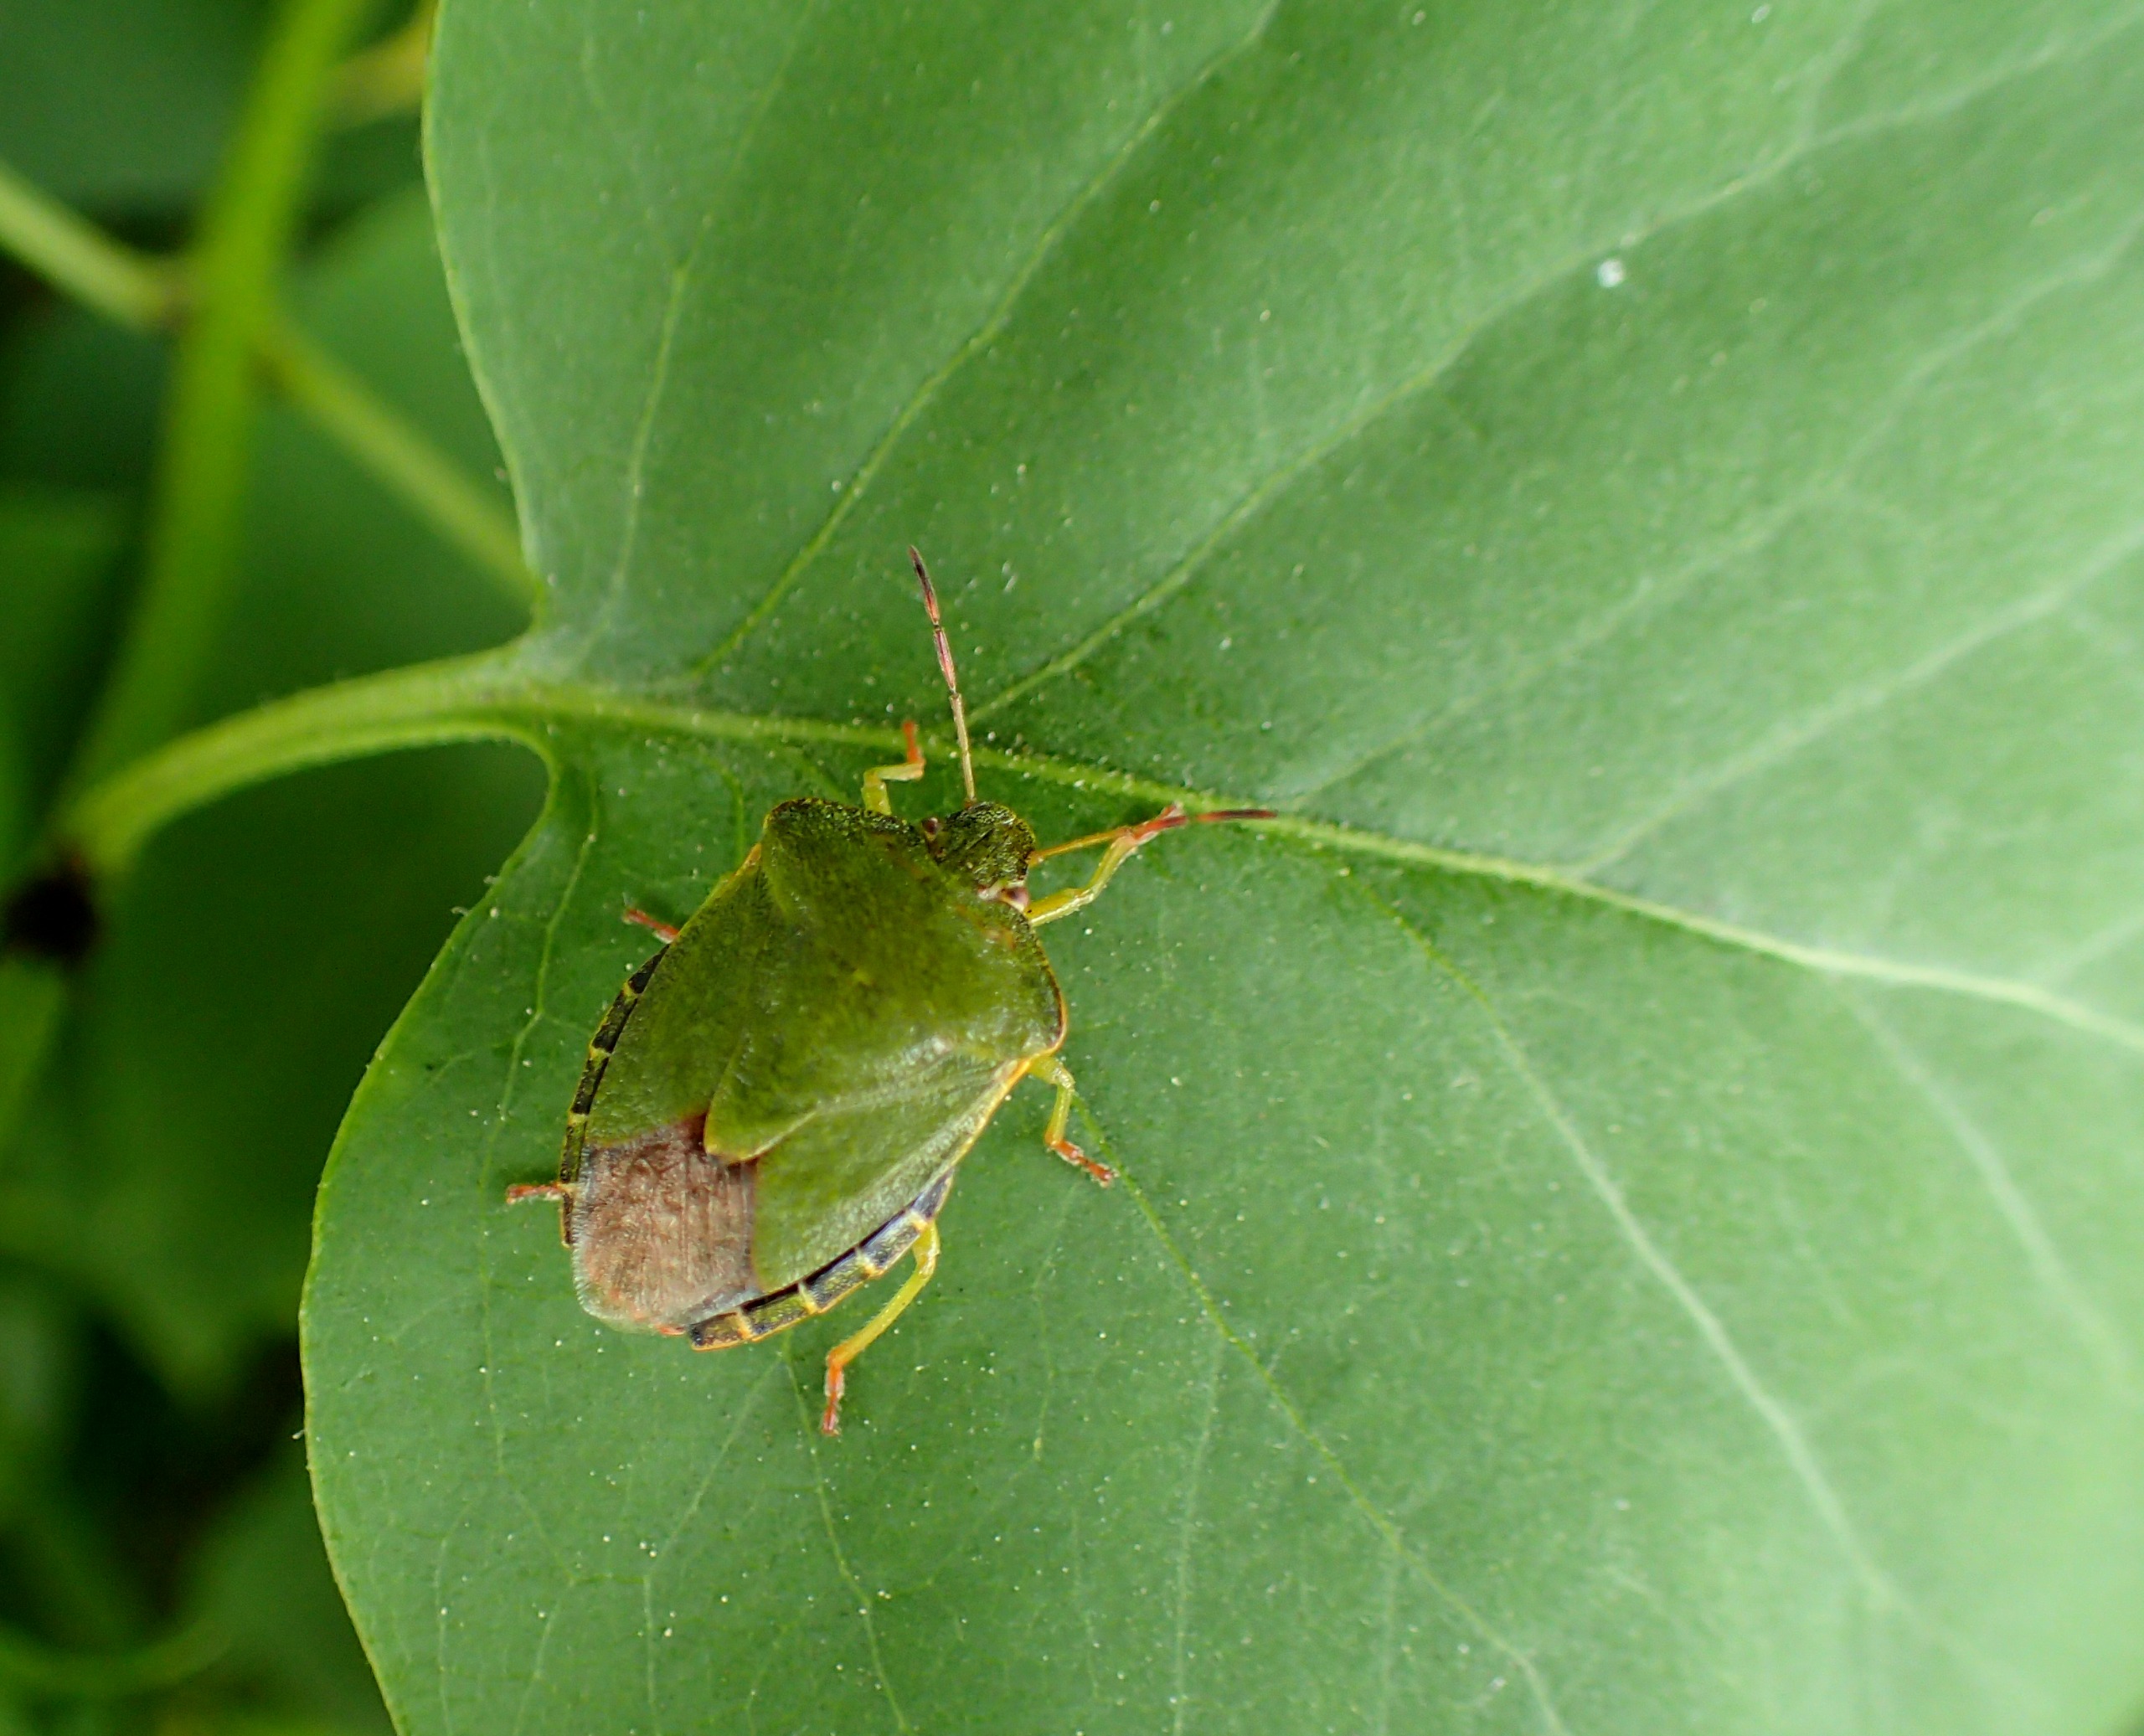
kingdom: Animalia
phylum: Arthropoda
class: Insecta
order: Hemiptera
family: Pentatomidae
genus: Palomena
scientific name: Palomena prasina
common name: Grøn bredtæge
